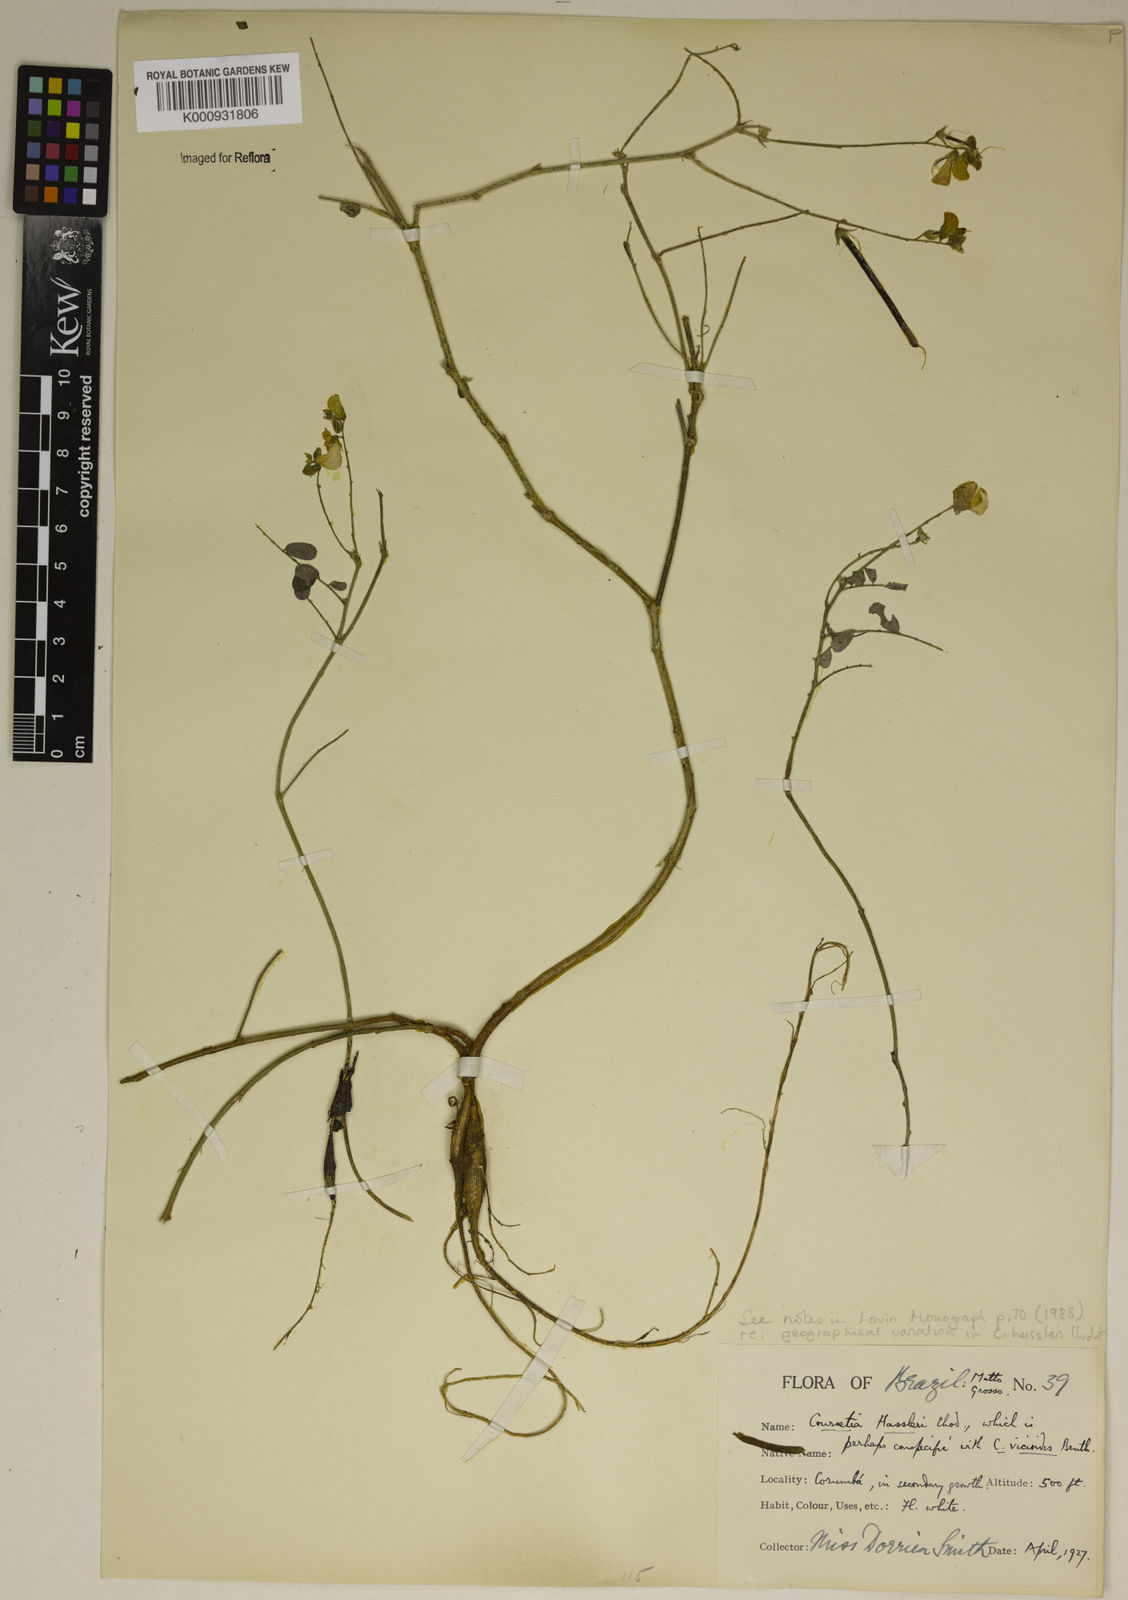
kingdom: Plantae
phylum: Tracheophyta
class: Magnoliopsida
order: Fabales
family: Fabaceae
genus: Coursetia
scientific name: Coursetia hassleri
